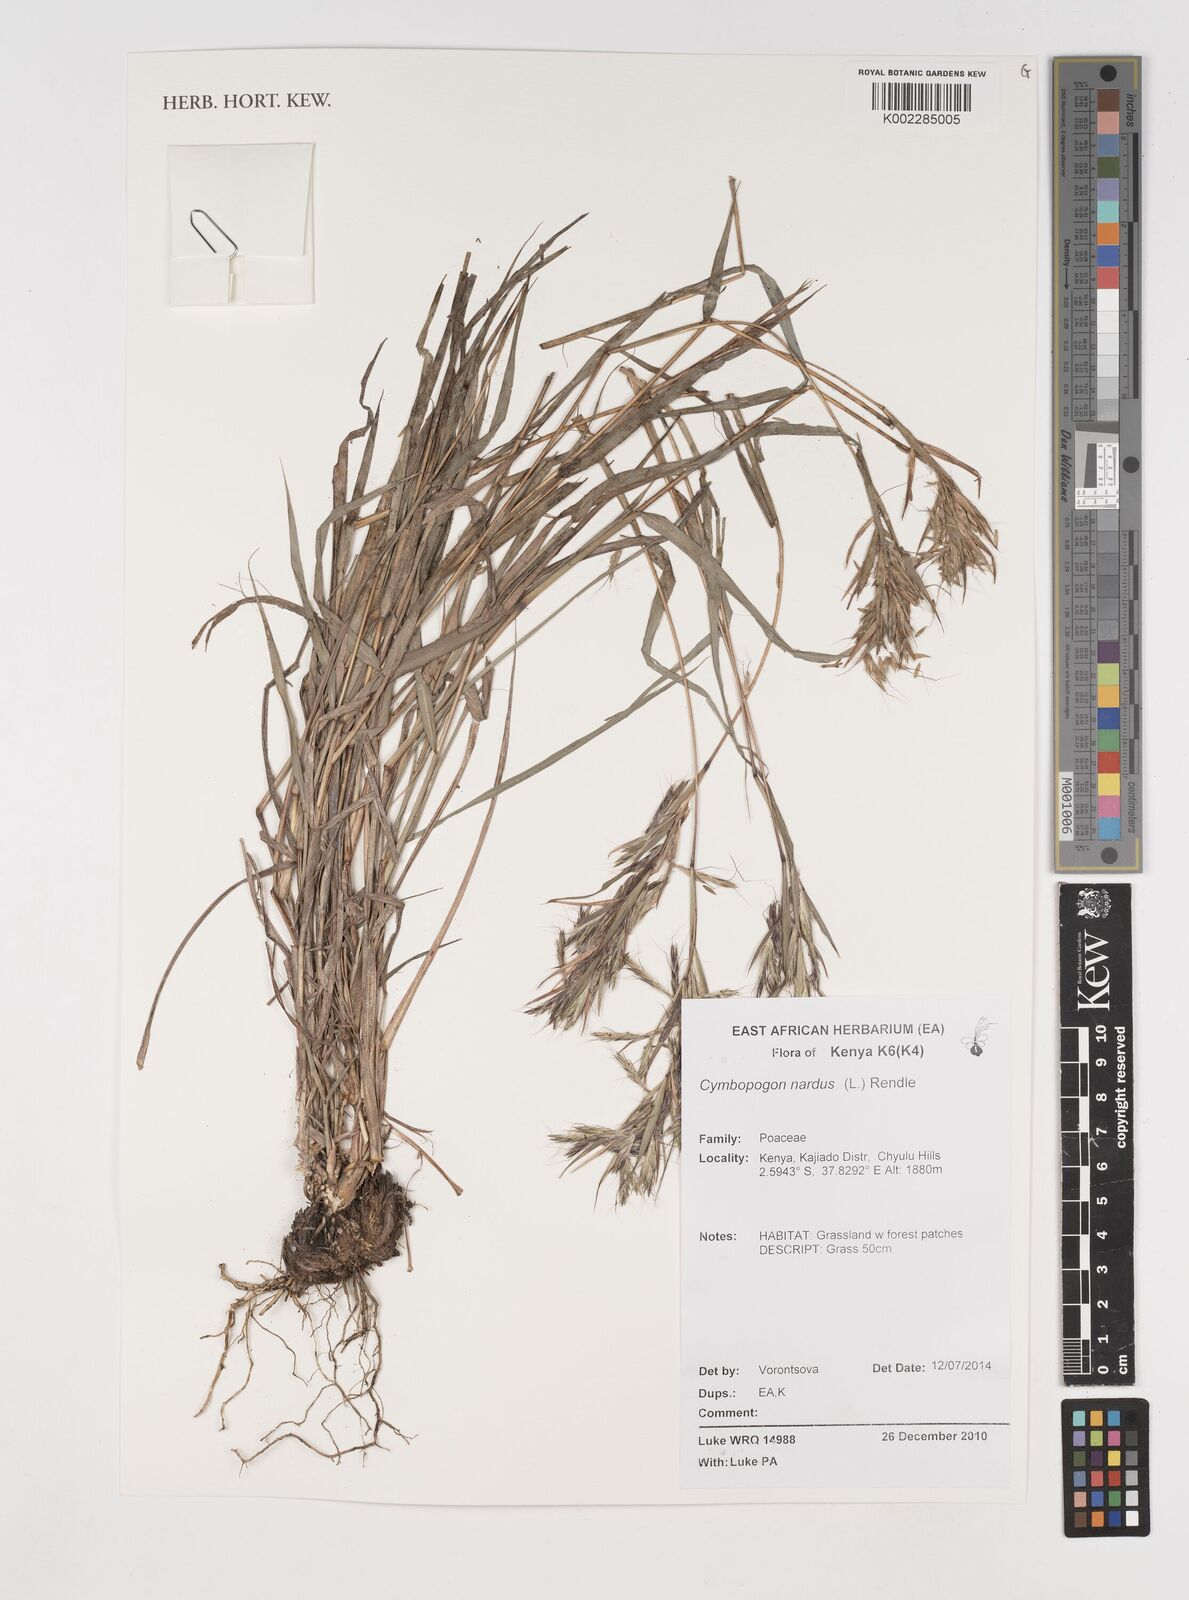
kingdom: Plantae
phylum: Tracheophyta
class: Liliopsida
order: Poales
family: Poaceae
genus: Cymbopogon
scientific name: Cymbopogon nardus
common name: Giant turpentine grass
